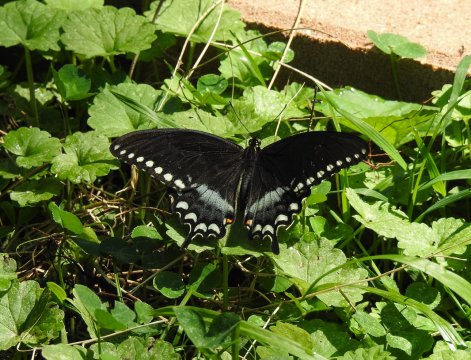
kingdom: Animalia
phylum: Arthropoda
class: Insecta
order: Lepidoptera
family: Papilionidae
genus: Pterourus
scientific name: Pterourus troilus
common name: Spicebush Swallowtail
